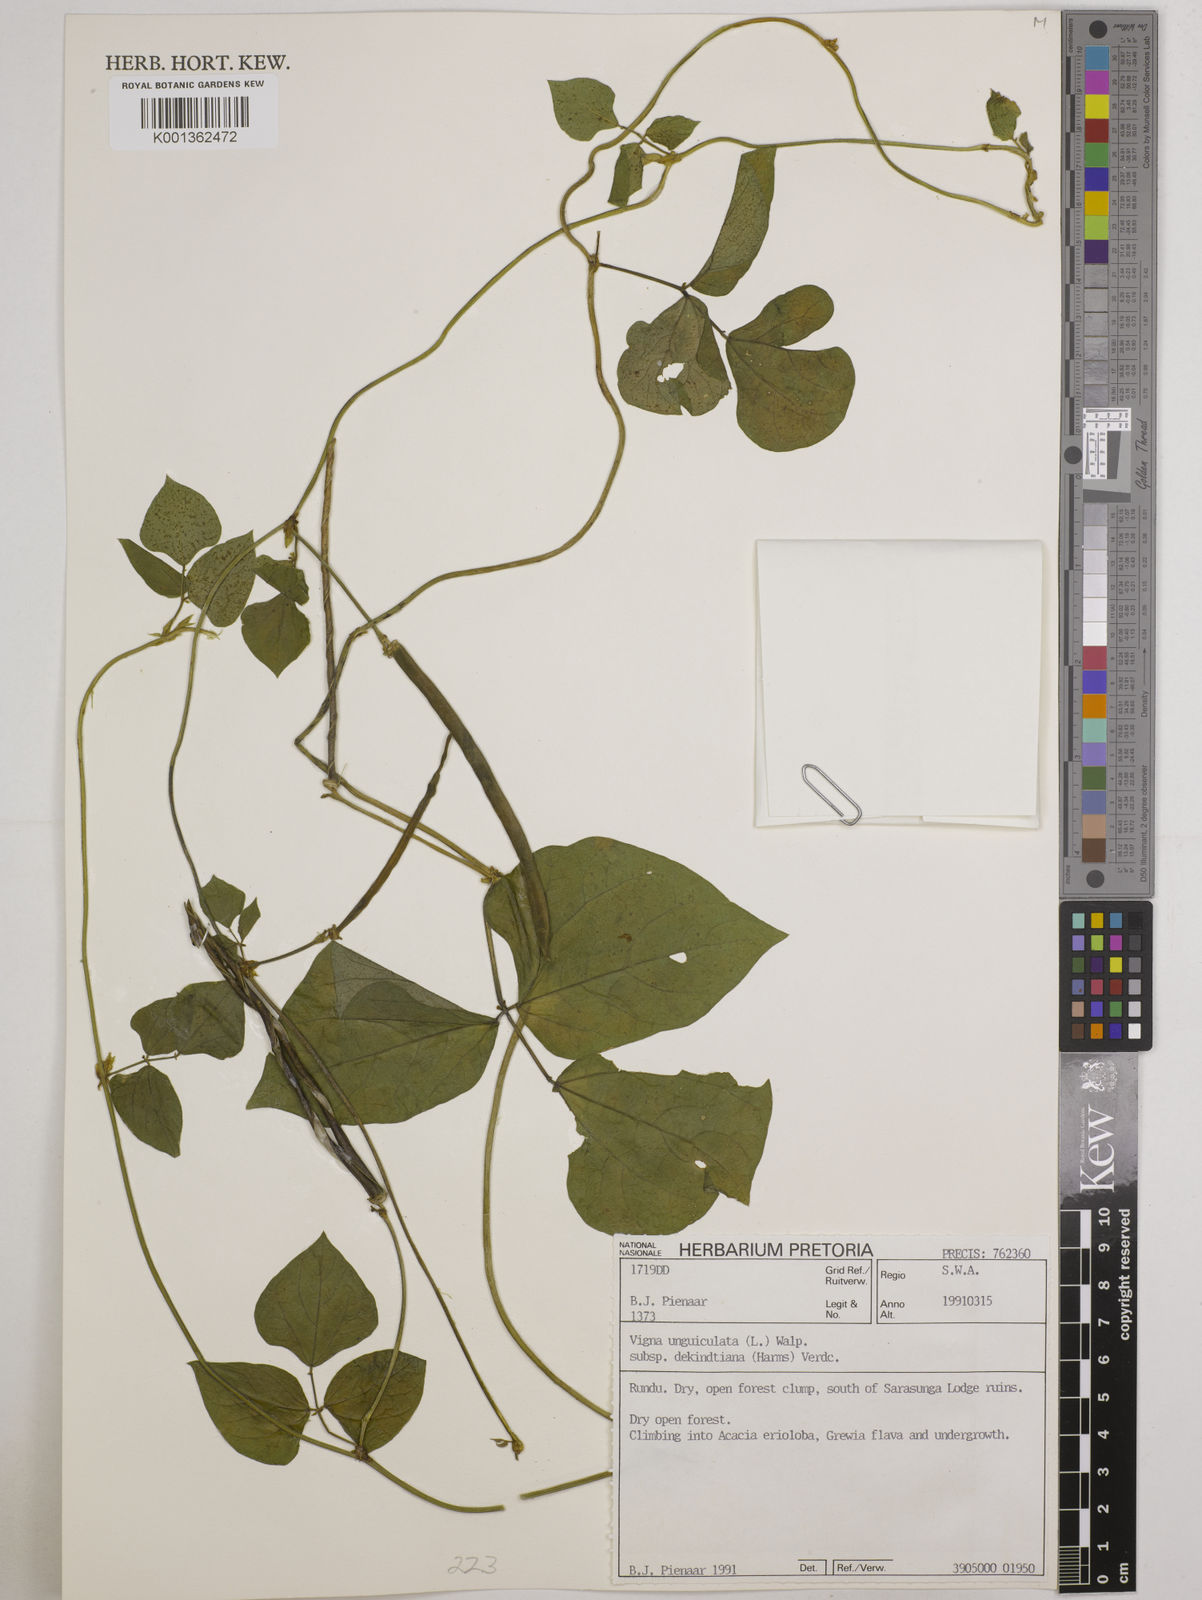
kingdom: Plantae
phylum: Tracheophyta
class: Magnoliopsida
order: Fabales
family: Fabaceae
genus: Vigna
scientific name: Vigna
